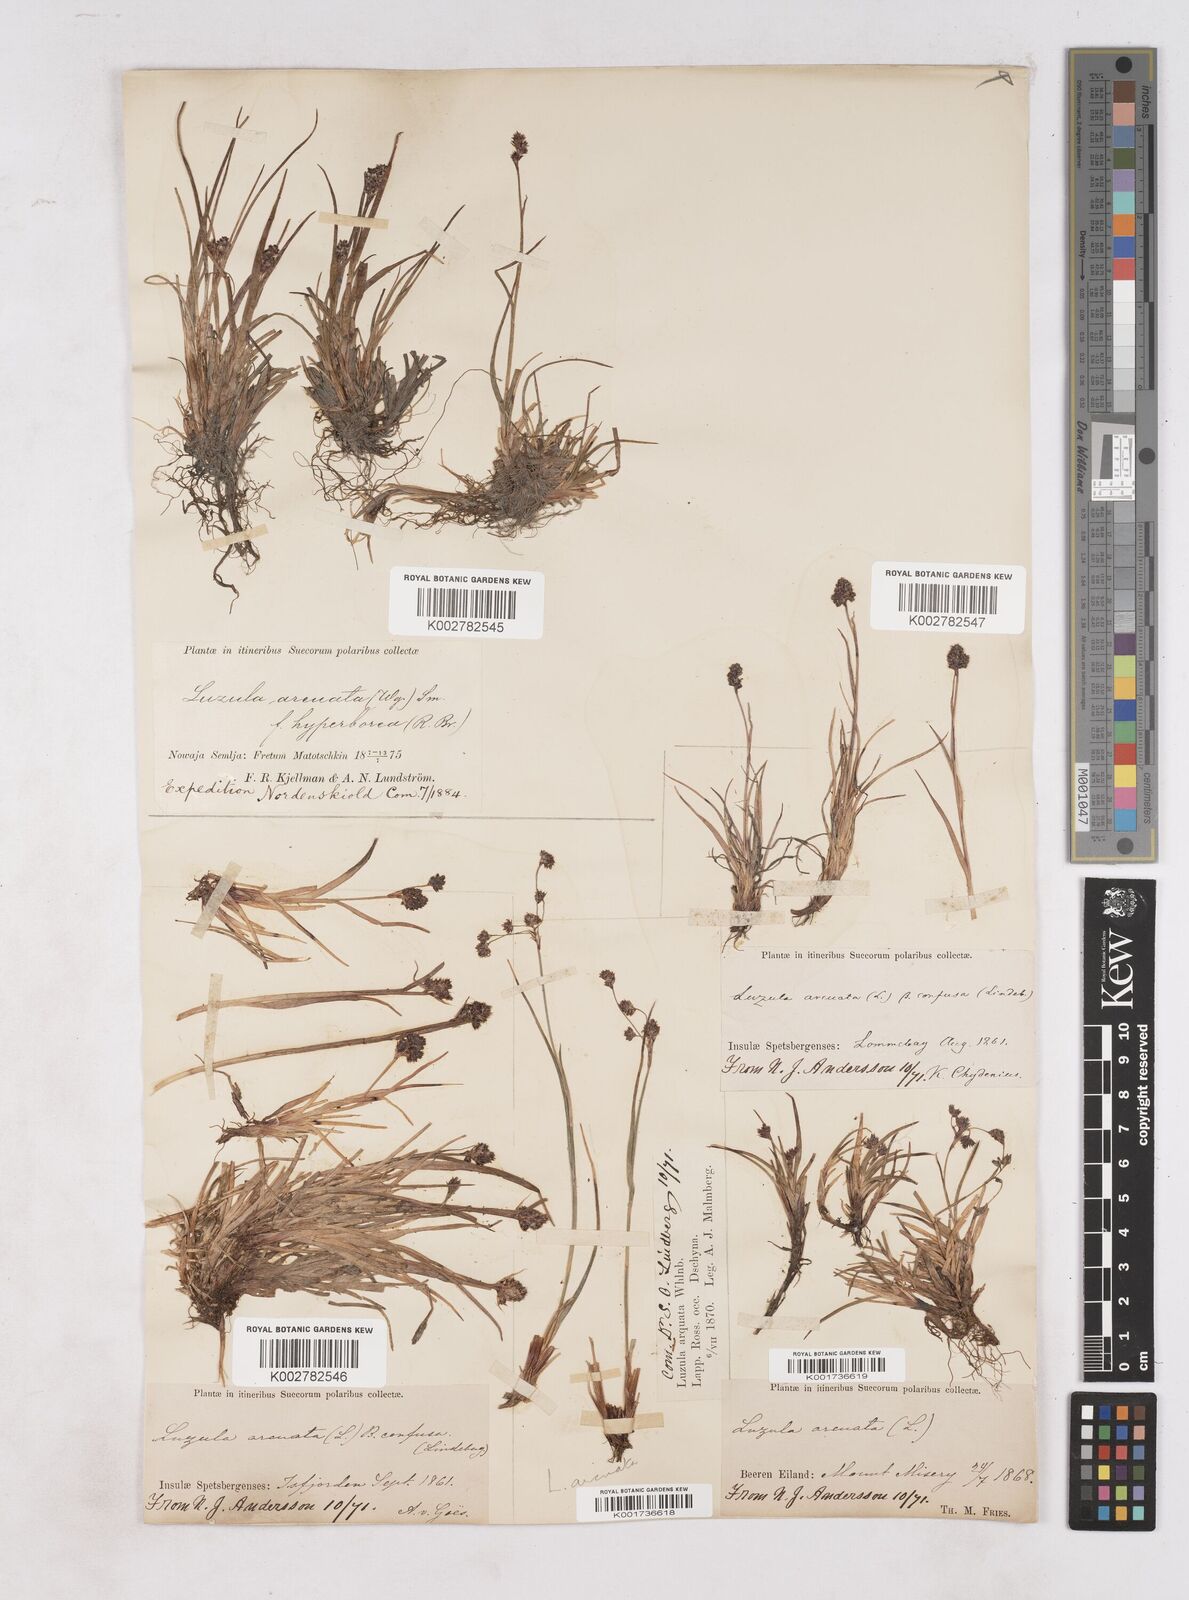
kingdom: Plantae
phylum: Tracheophyta
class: Liliopsida
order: Poales
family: Juncaceae
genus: Luzula
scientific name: Luzula confusa
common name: Northern wood rush
